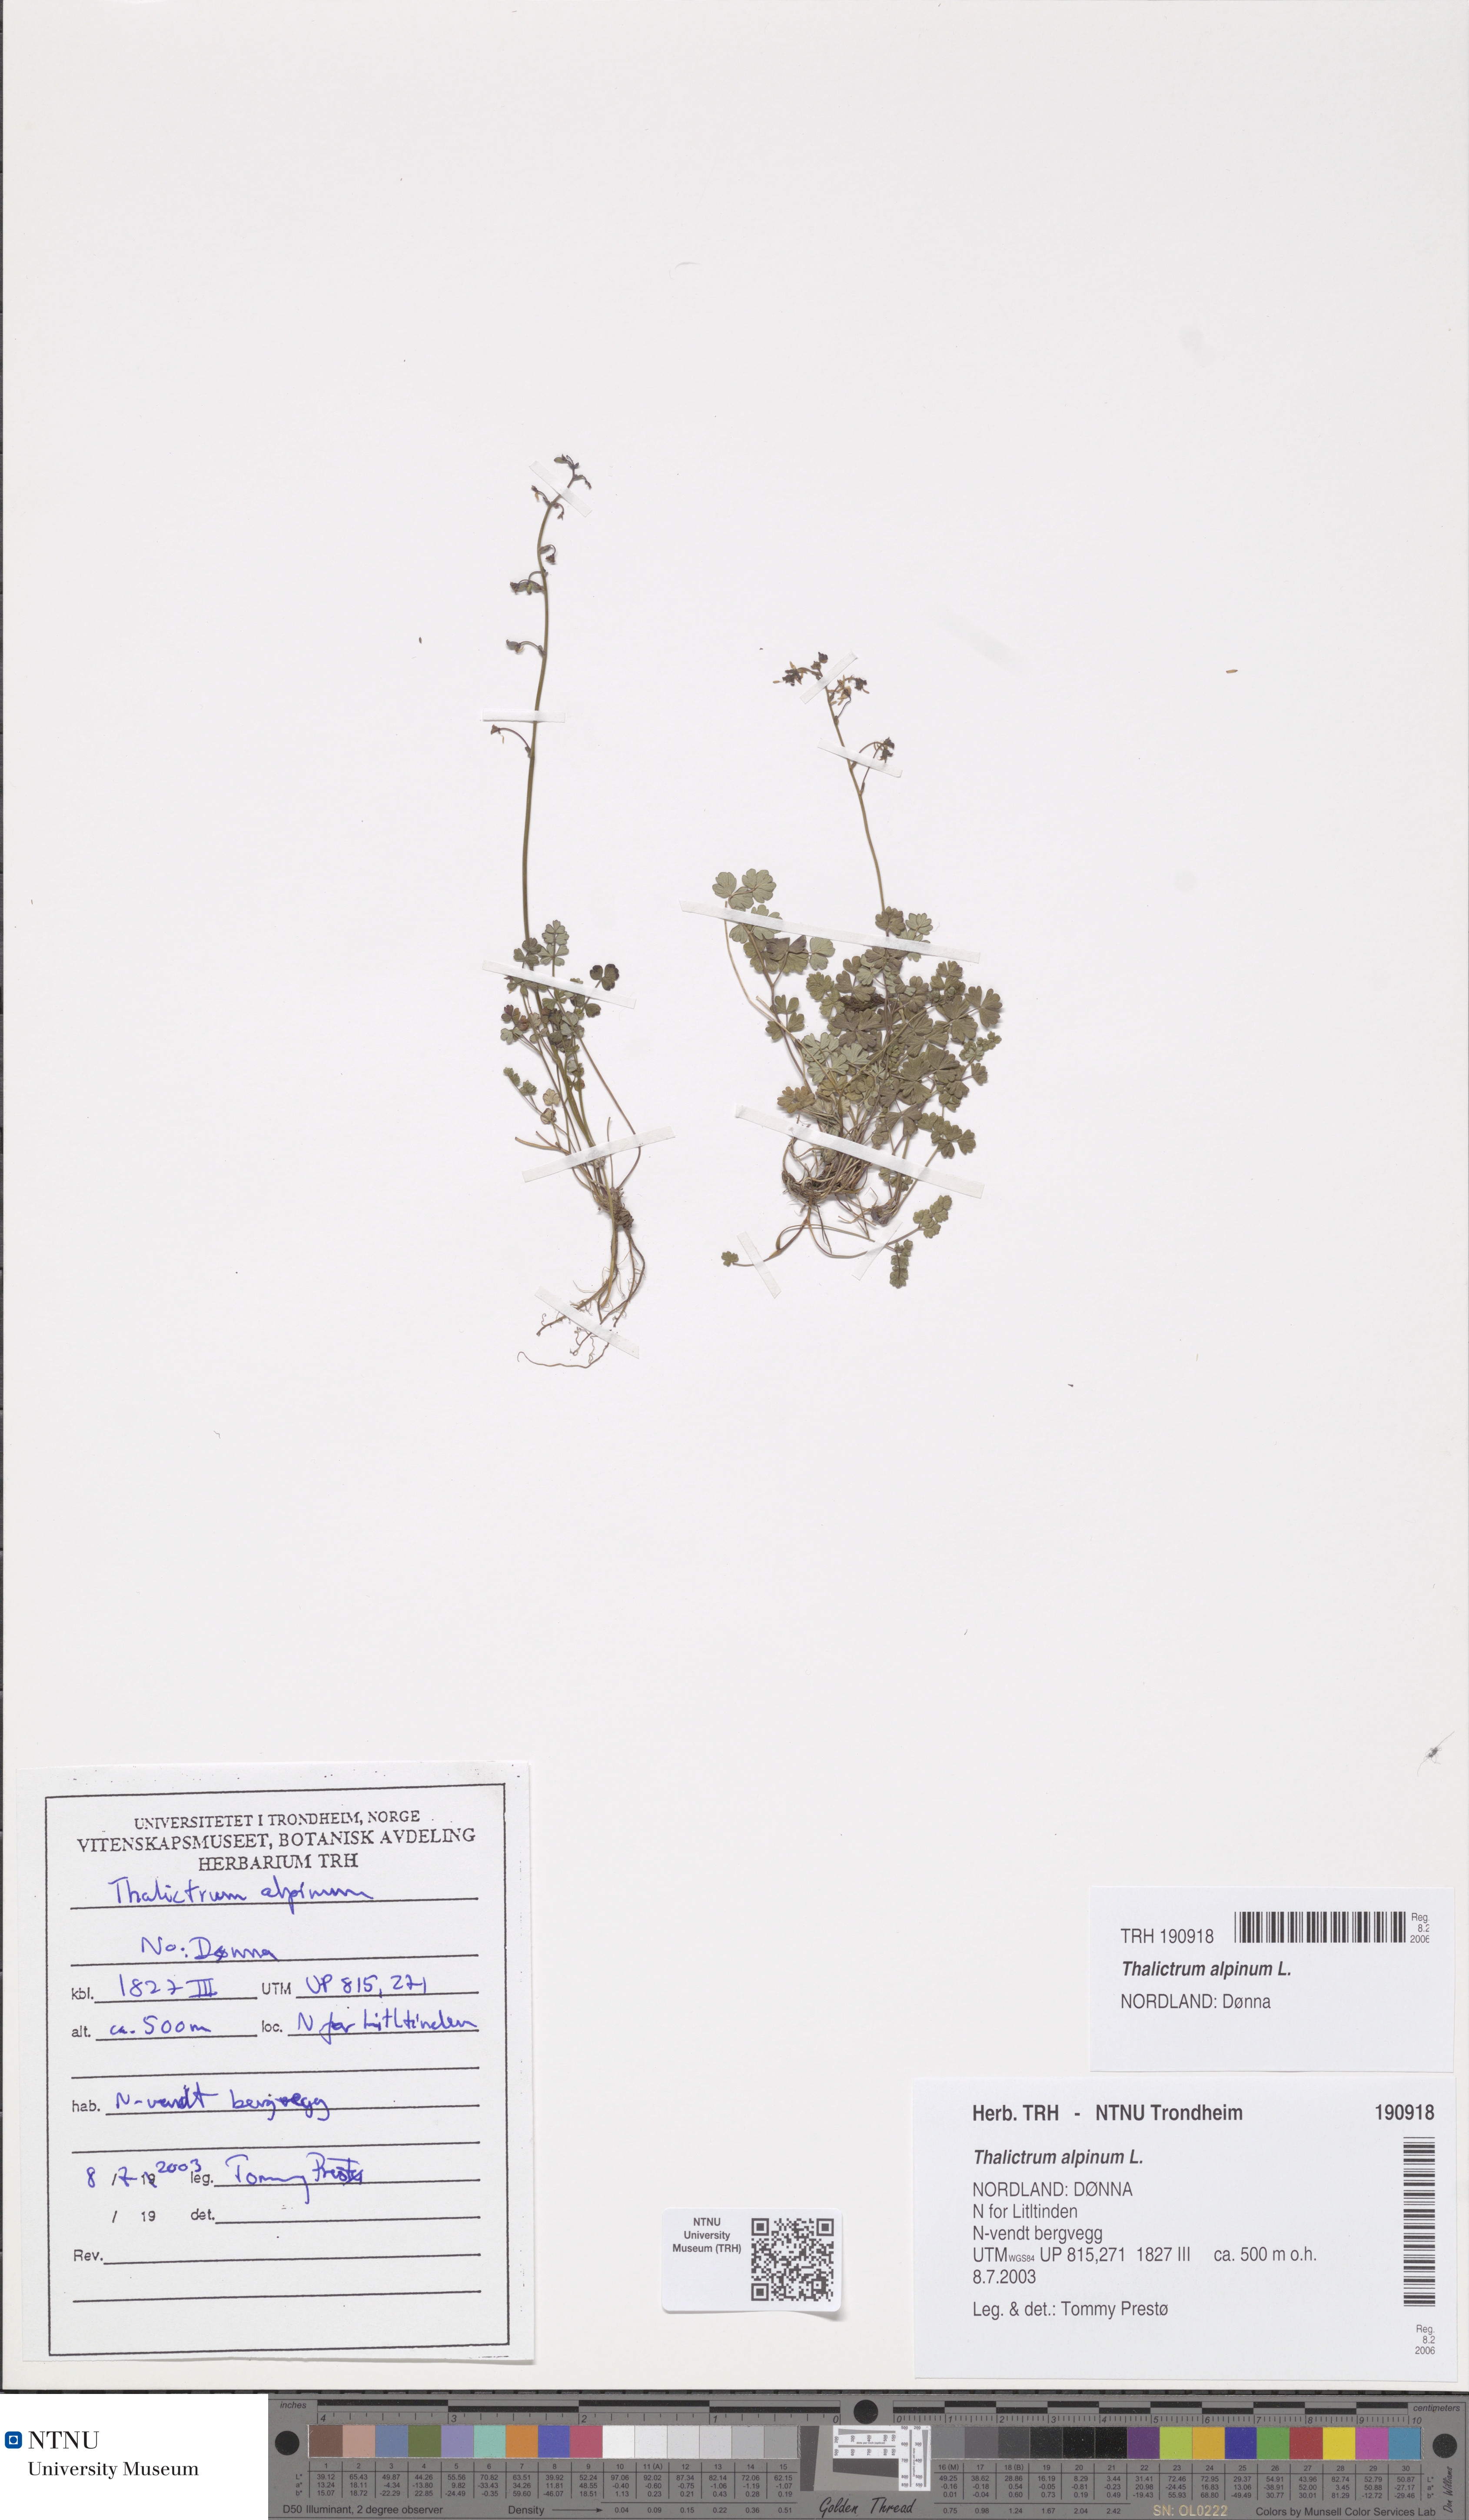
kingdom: Plantae
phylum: Tracheophyta
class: Magnoliopsida
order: Ranunculales
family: Ranunculaceae
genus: Thalictrum
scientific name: Thalictrum alpinum
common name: Alpine meadow-rue
